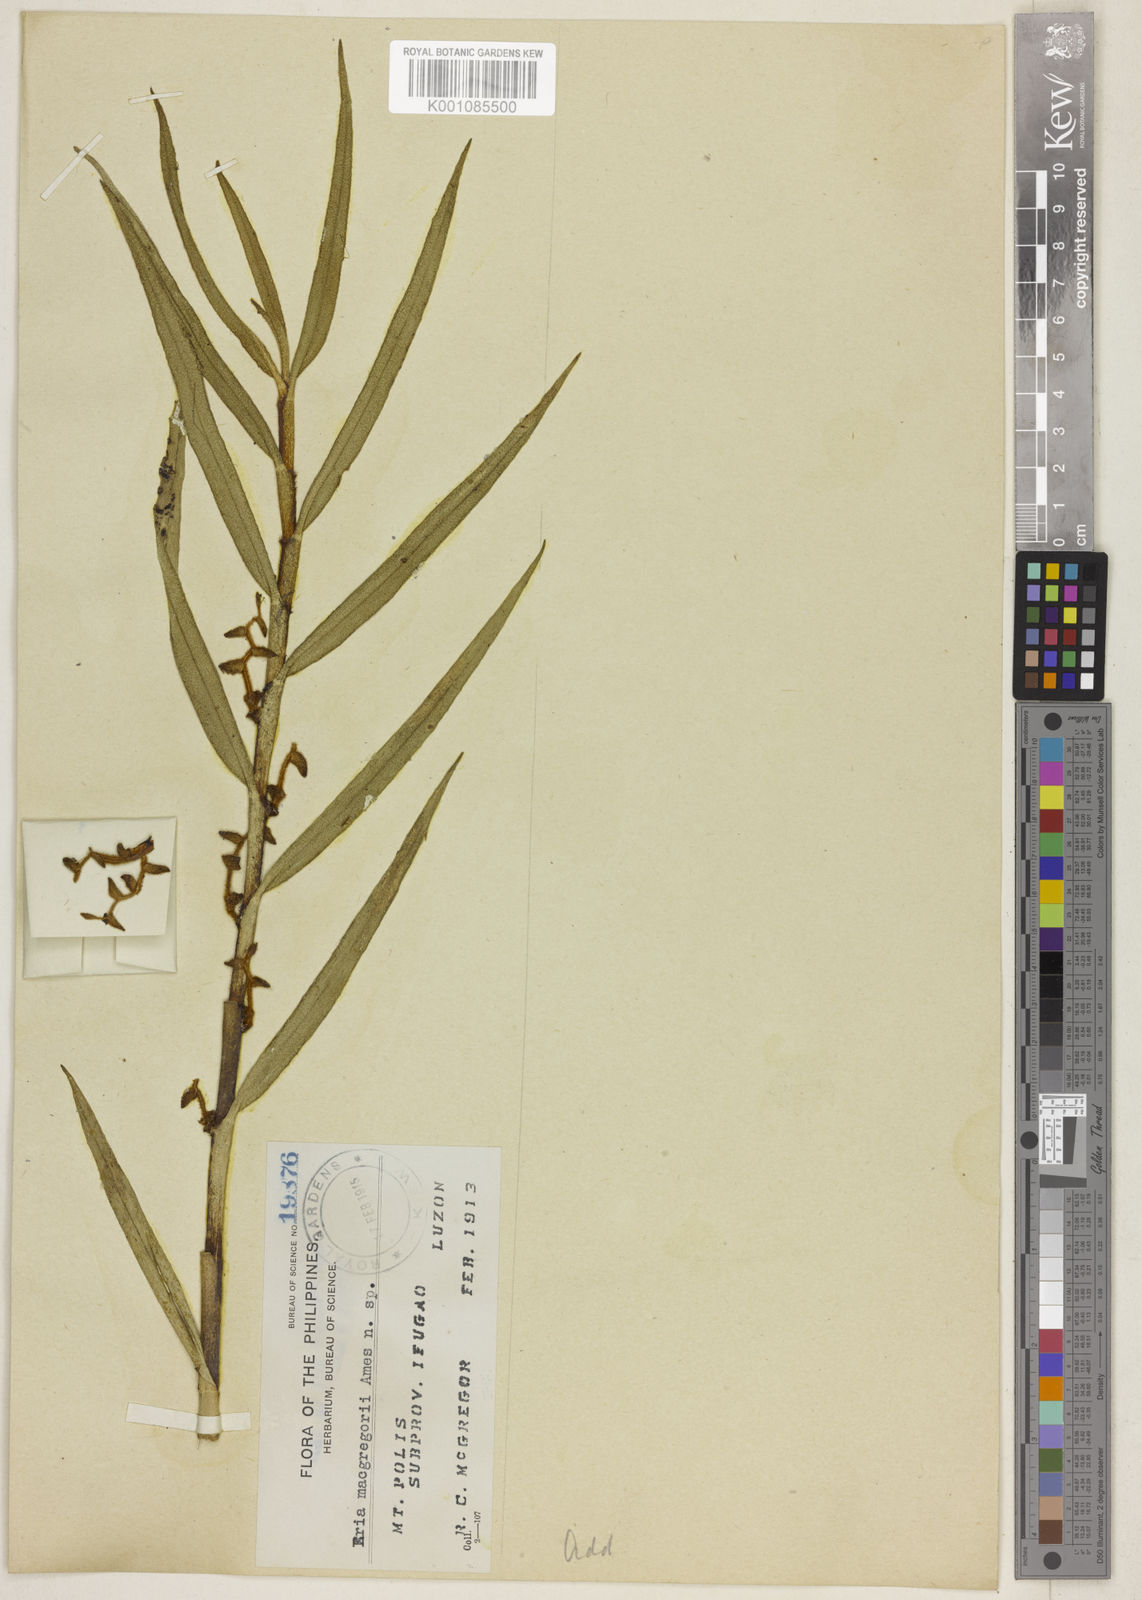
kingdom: Plantae
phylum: Tracheophyta
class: Liliopsida
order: Asparagales
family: Orchidaceae
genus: Trichotosia
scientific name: Trichotosia mcgregorii
